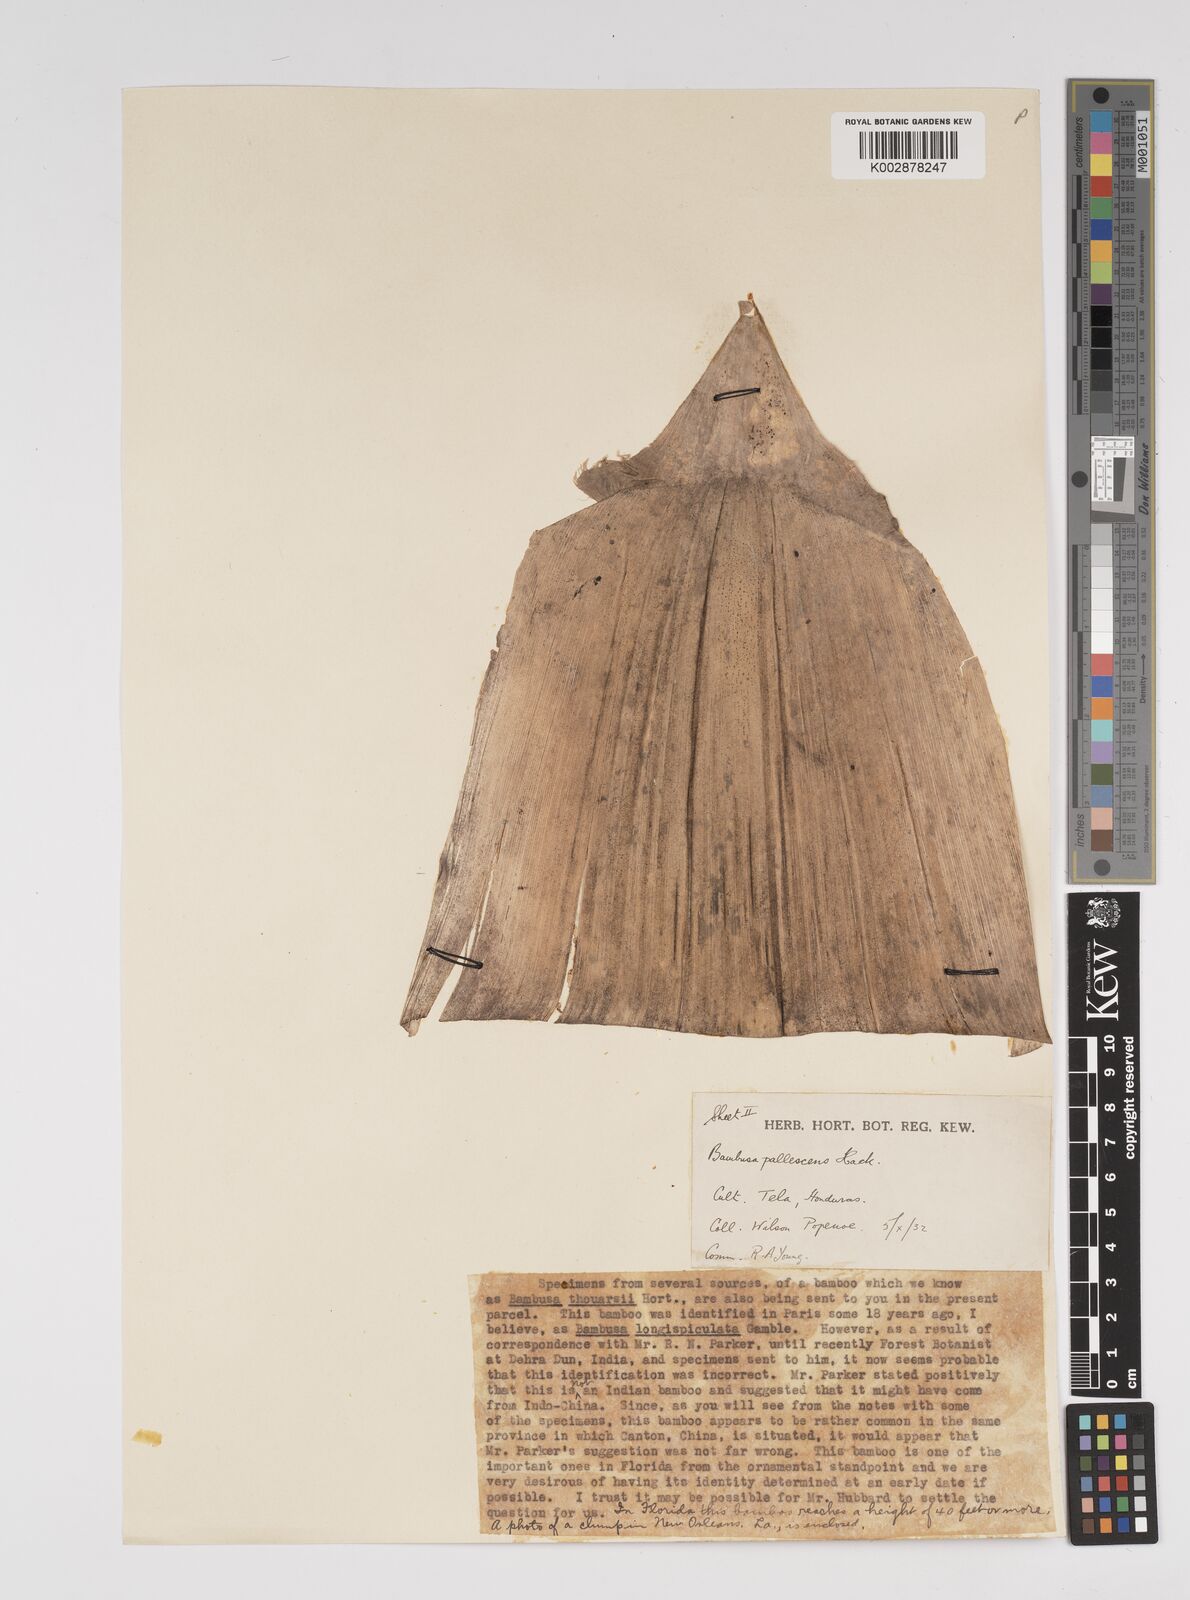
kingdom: Plantae
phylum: Tracheophyta
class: Liliopsida
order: Poales
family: Poaceae
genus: Bambusa
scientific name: Bambusa tuldoides
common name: Verdant bamboo
